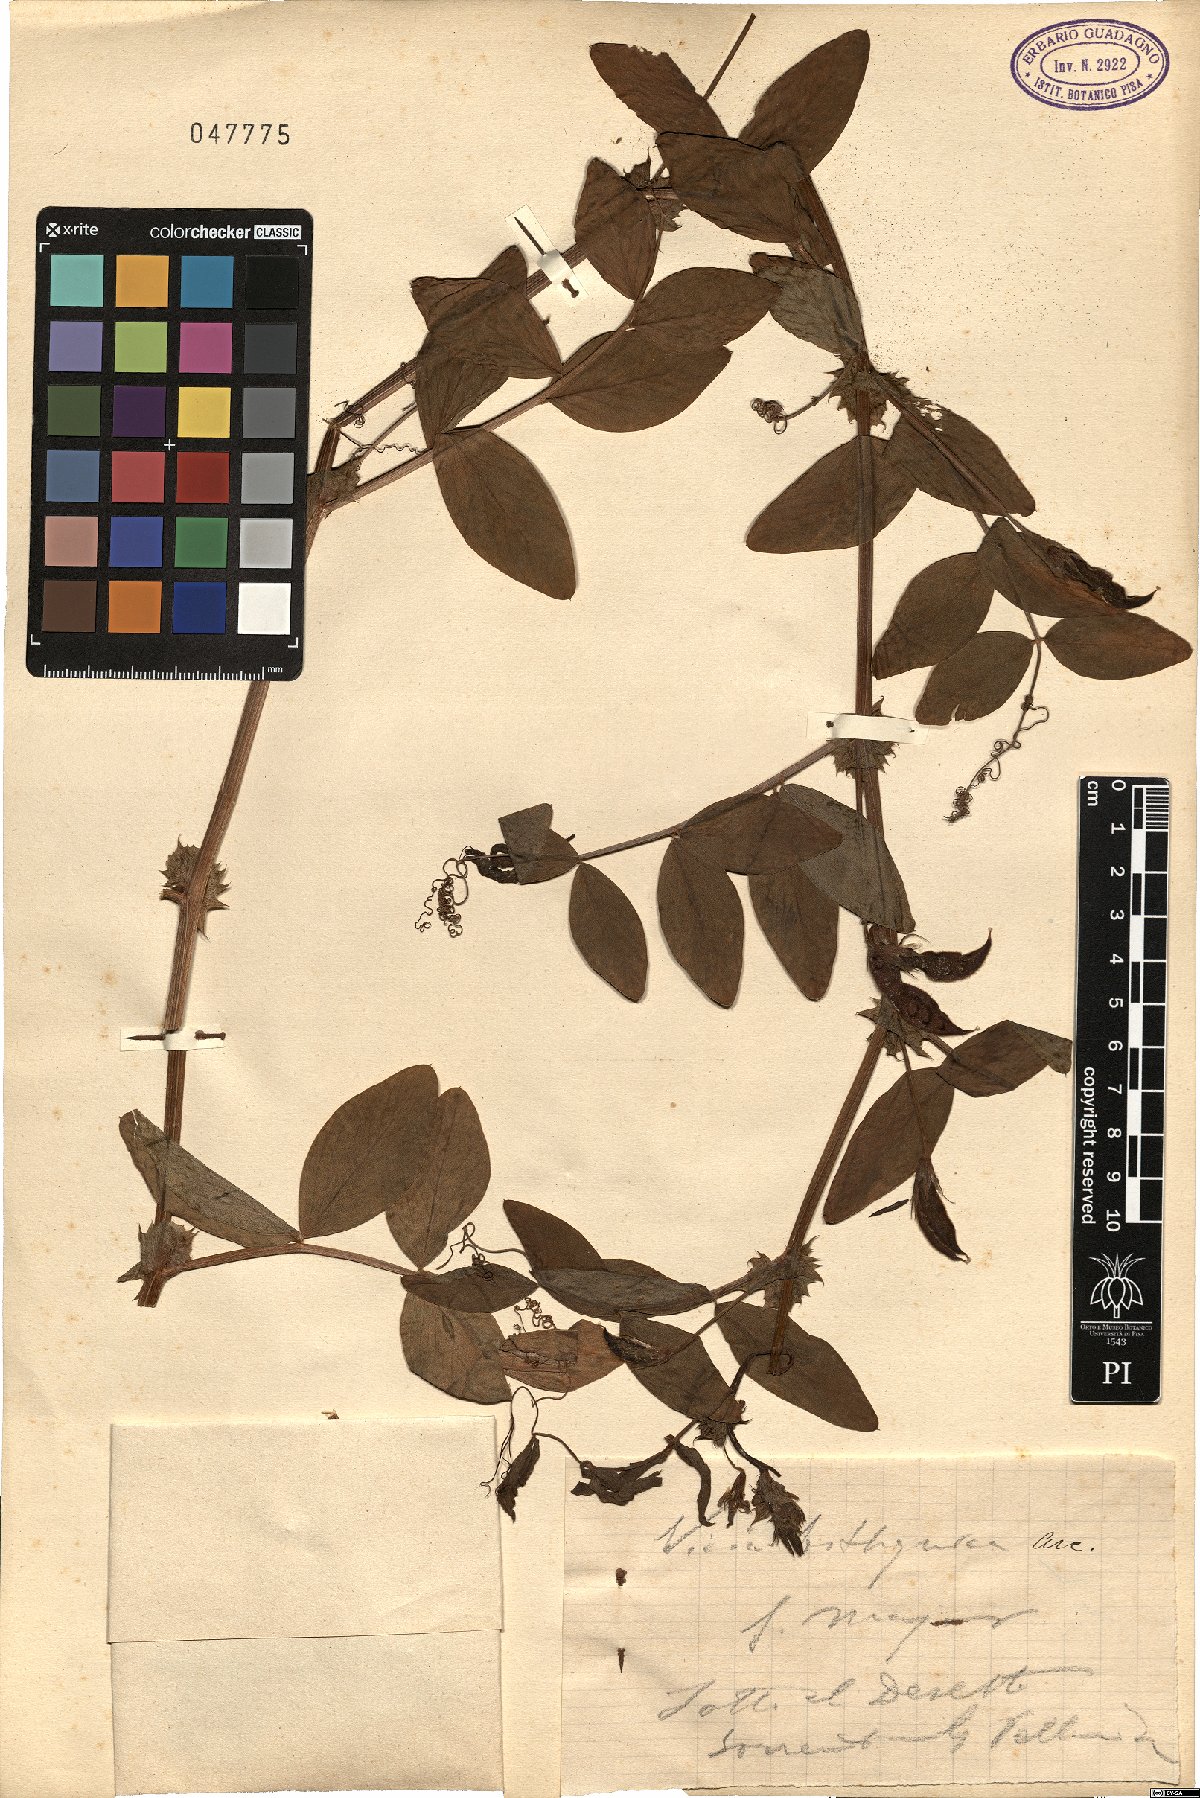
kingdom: Plantae
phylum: Tracheophyta
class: Magnoliopsida
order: Fabales
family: Fabaceae
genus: Vicia
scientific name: Vicia bithynica
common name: Bithynian vetch
